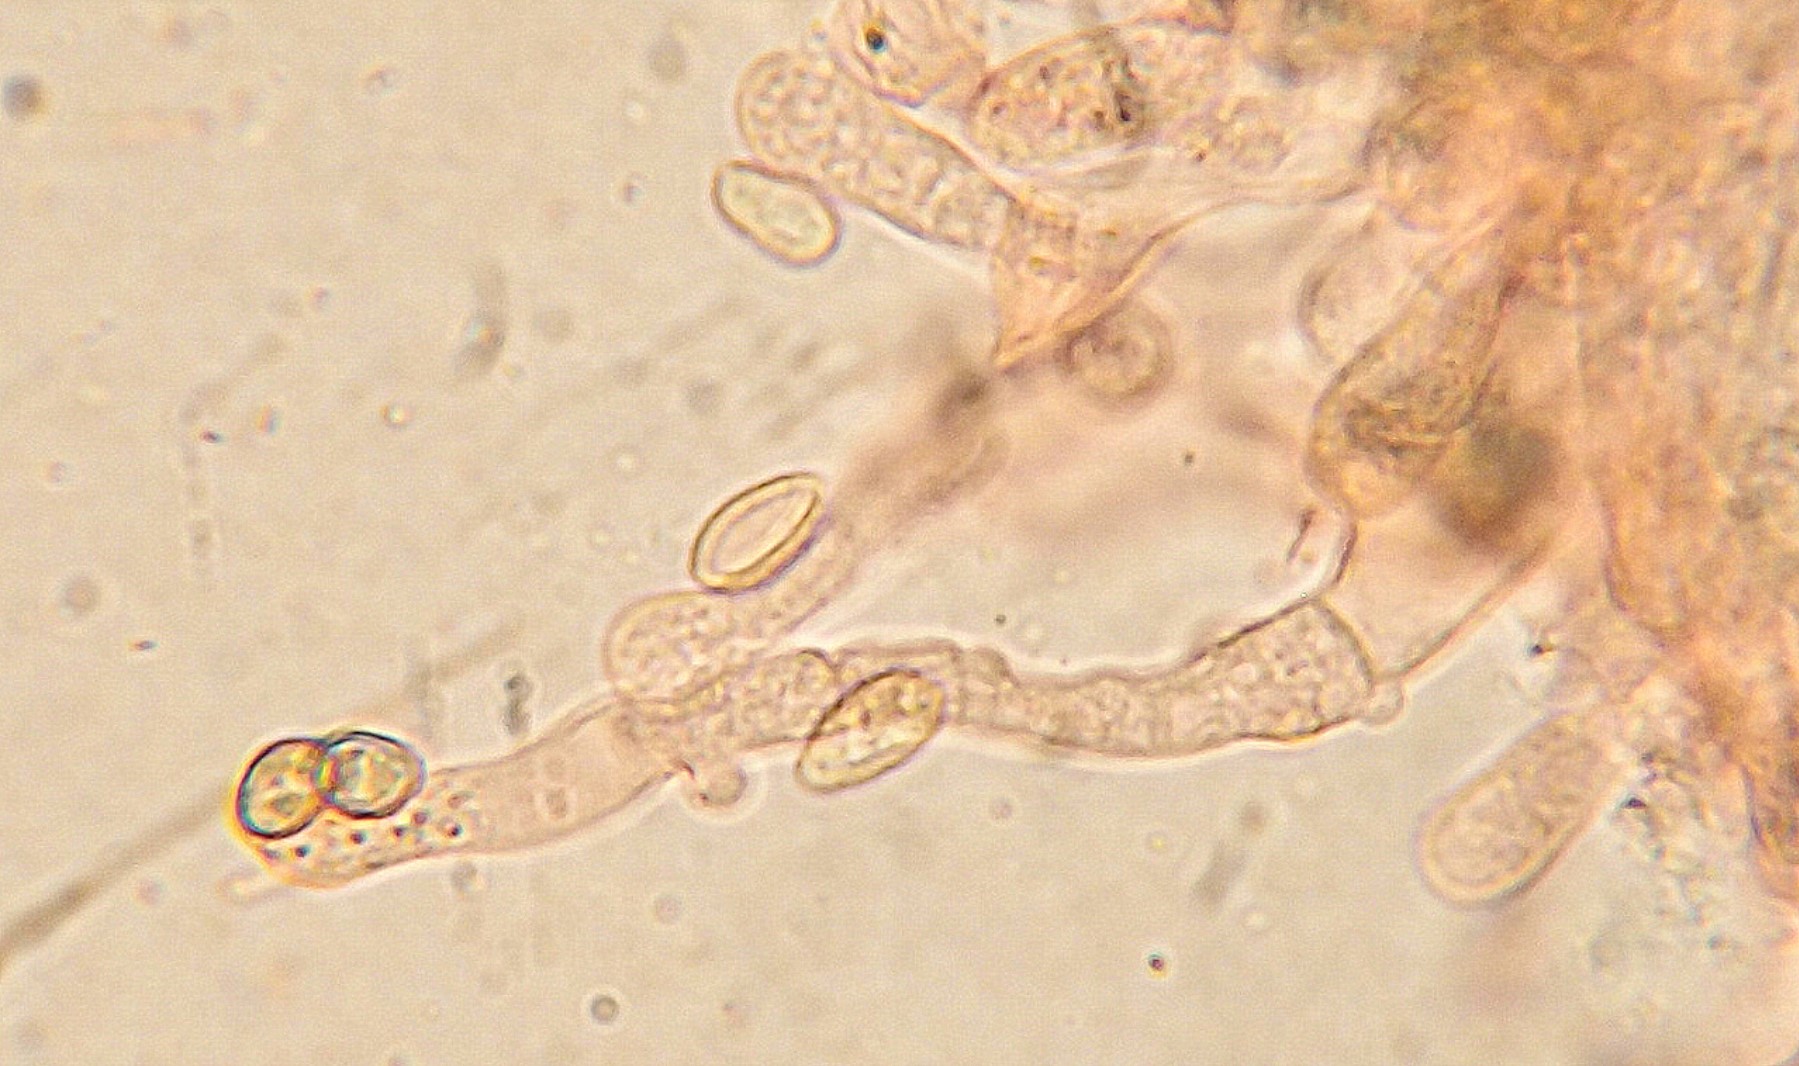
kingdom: Fungi
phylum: Basidiomycota
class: Agaricomycetes
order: Agaricales
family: Crepidotaceae
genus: Crepidotus
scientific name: Crepidotus luteolus
